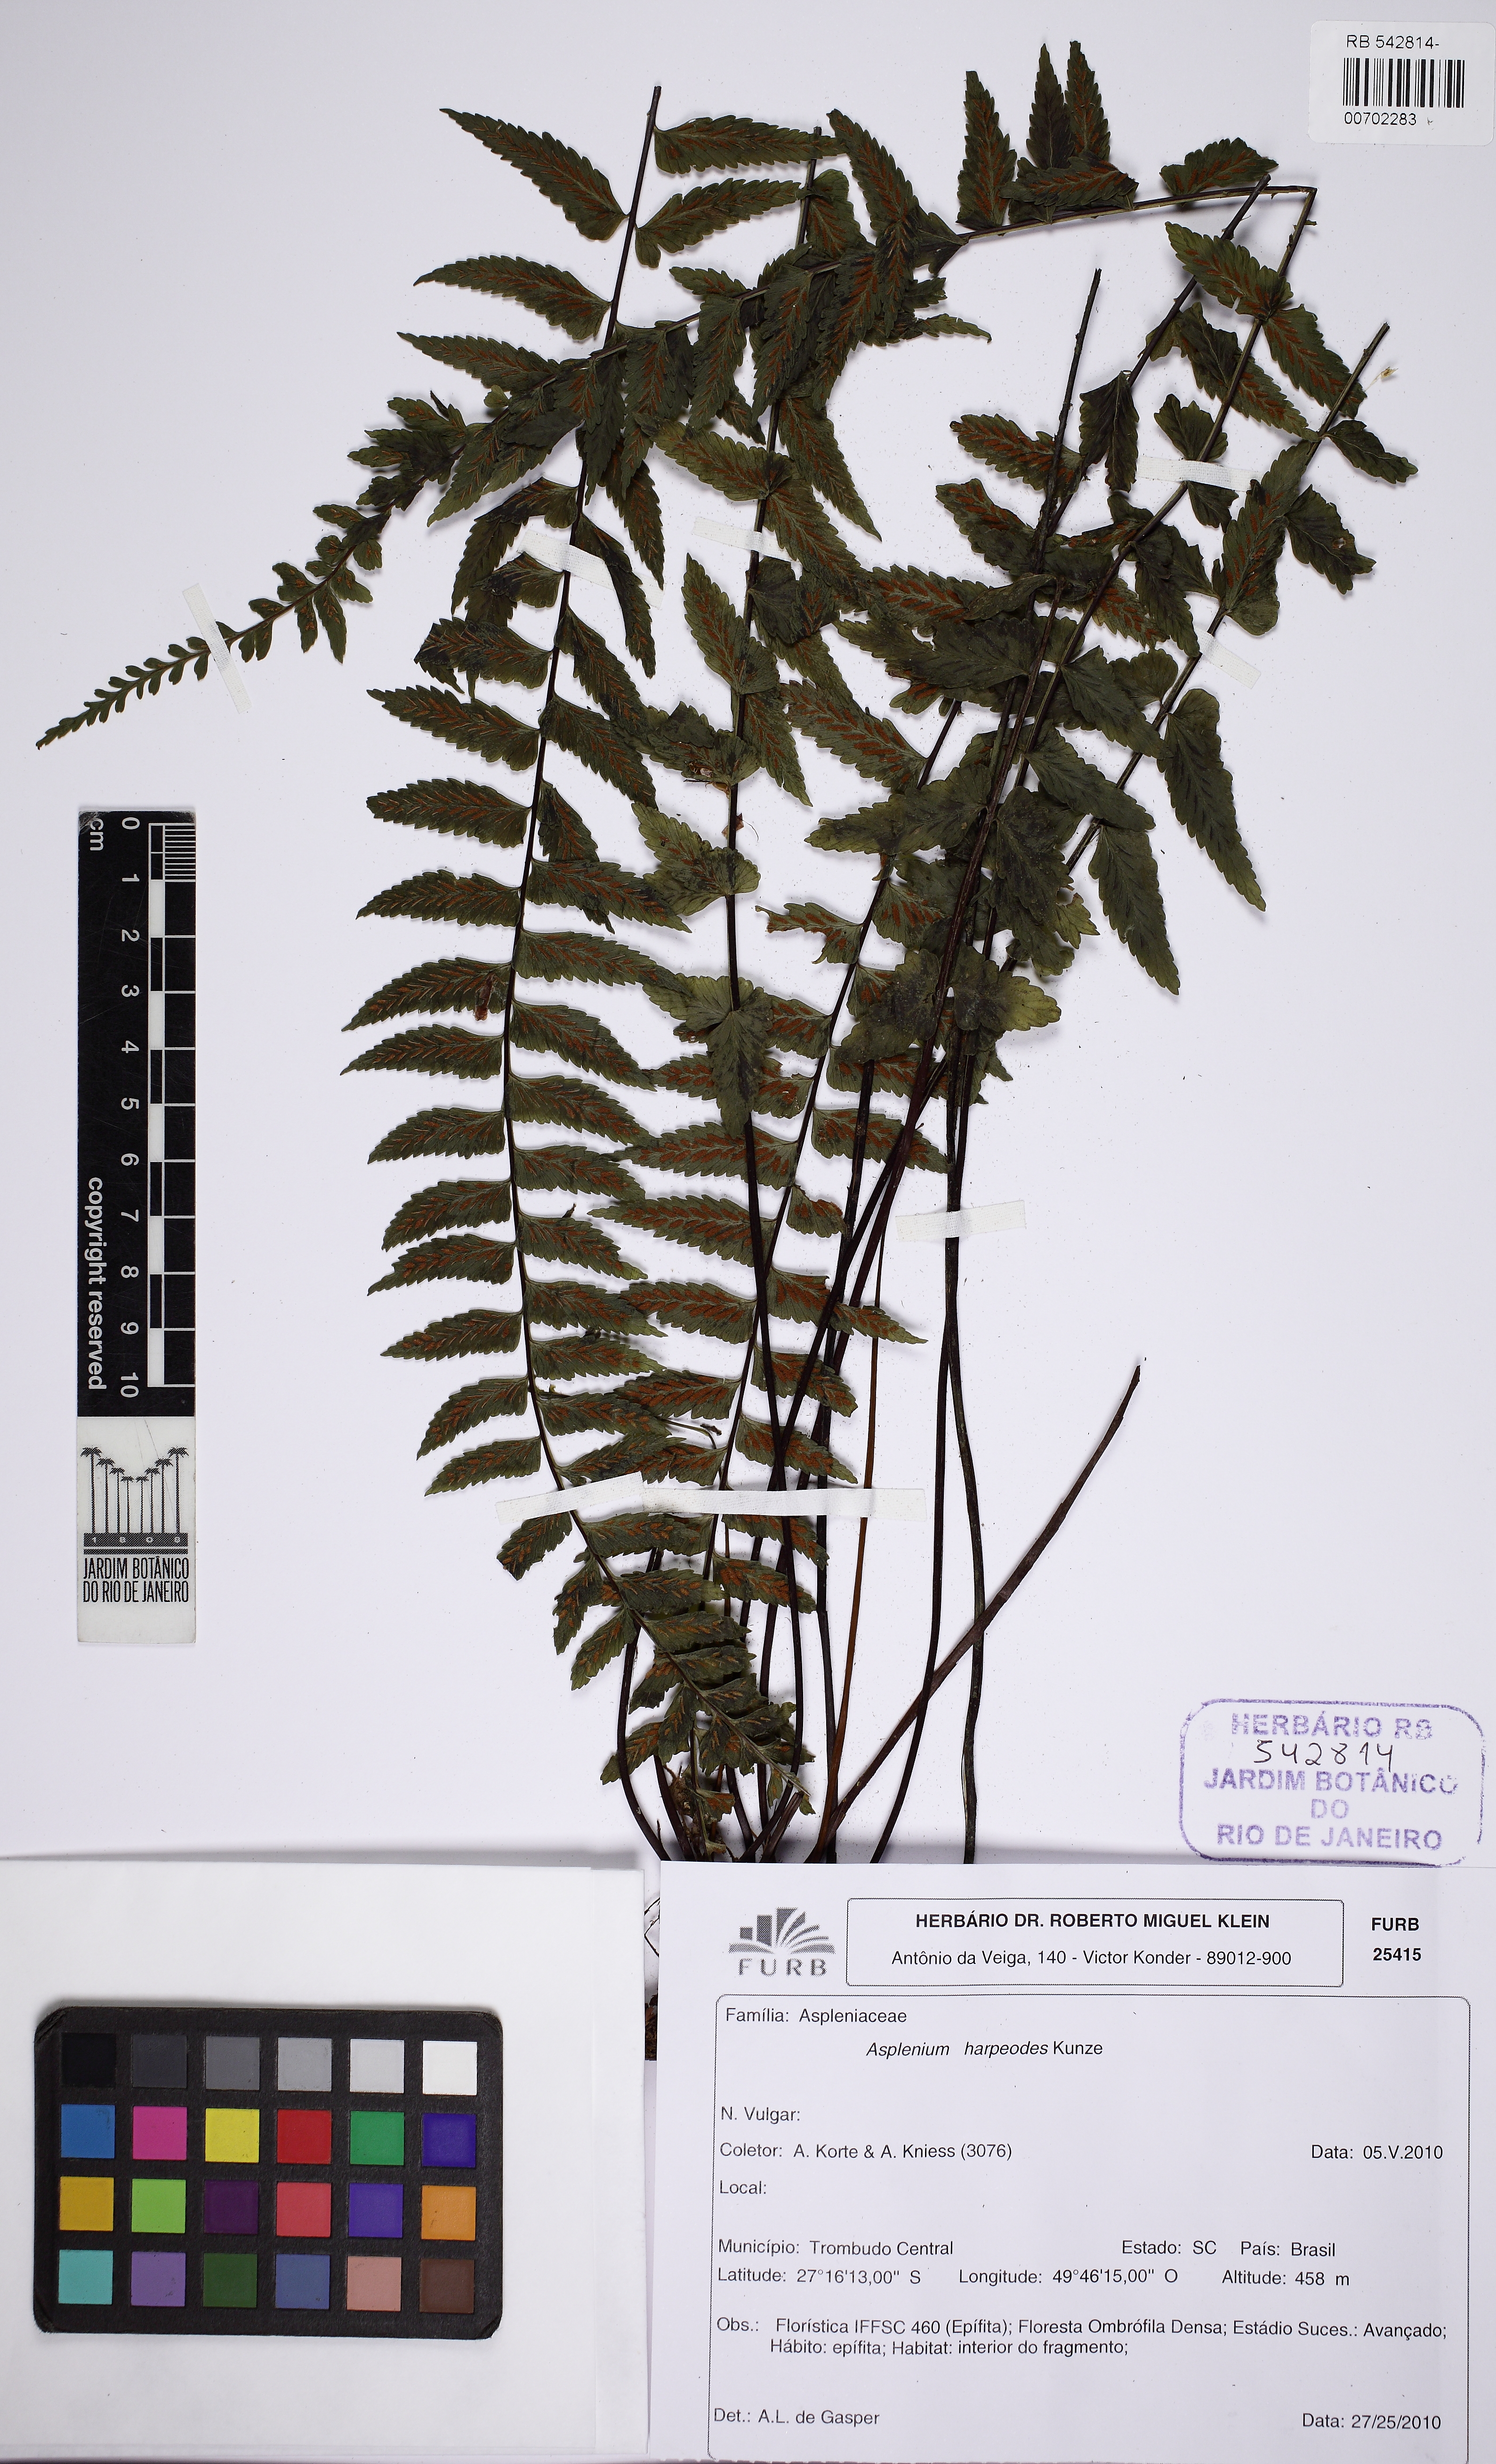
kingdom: Plantae
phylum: Tracheophyta
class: Polypodiopsida
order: Polypodiales
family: Aspleniaceae
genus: Asplenium
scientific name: Asplenium harpeodes
